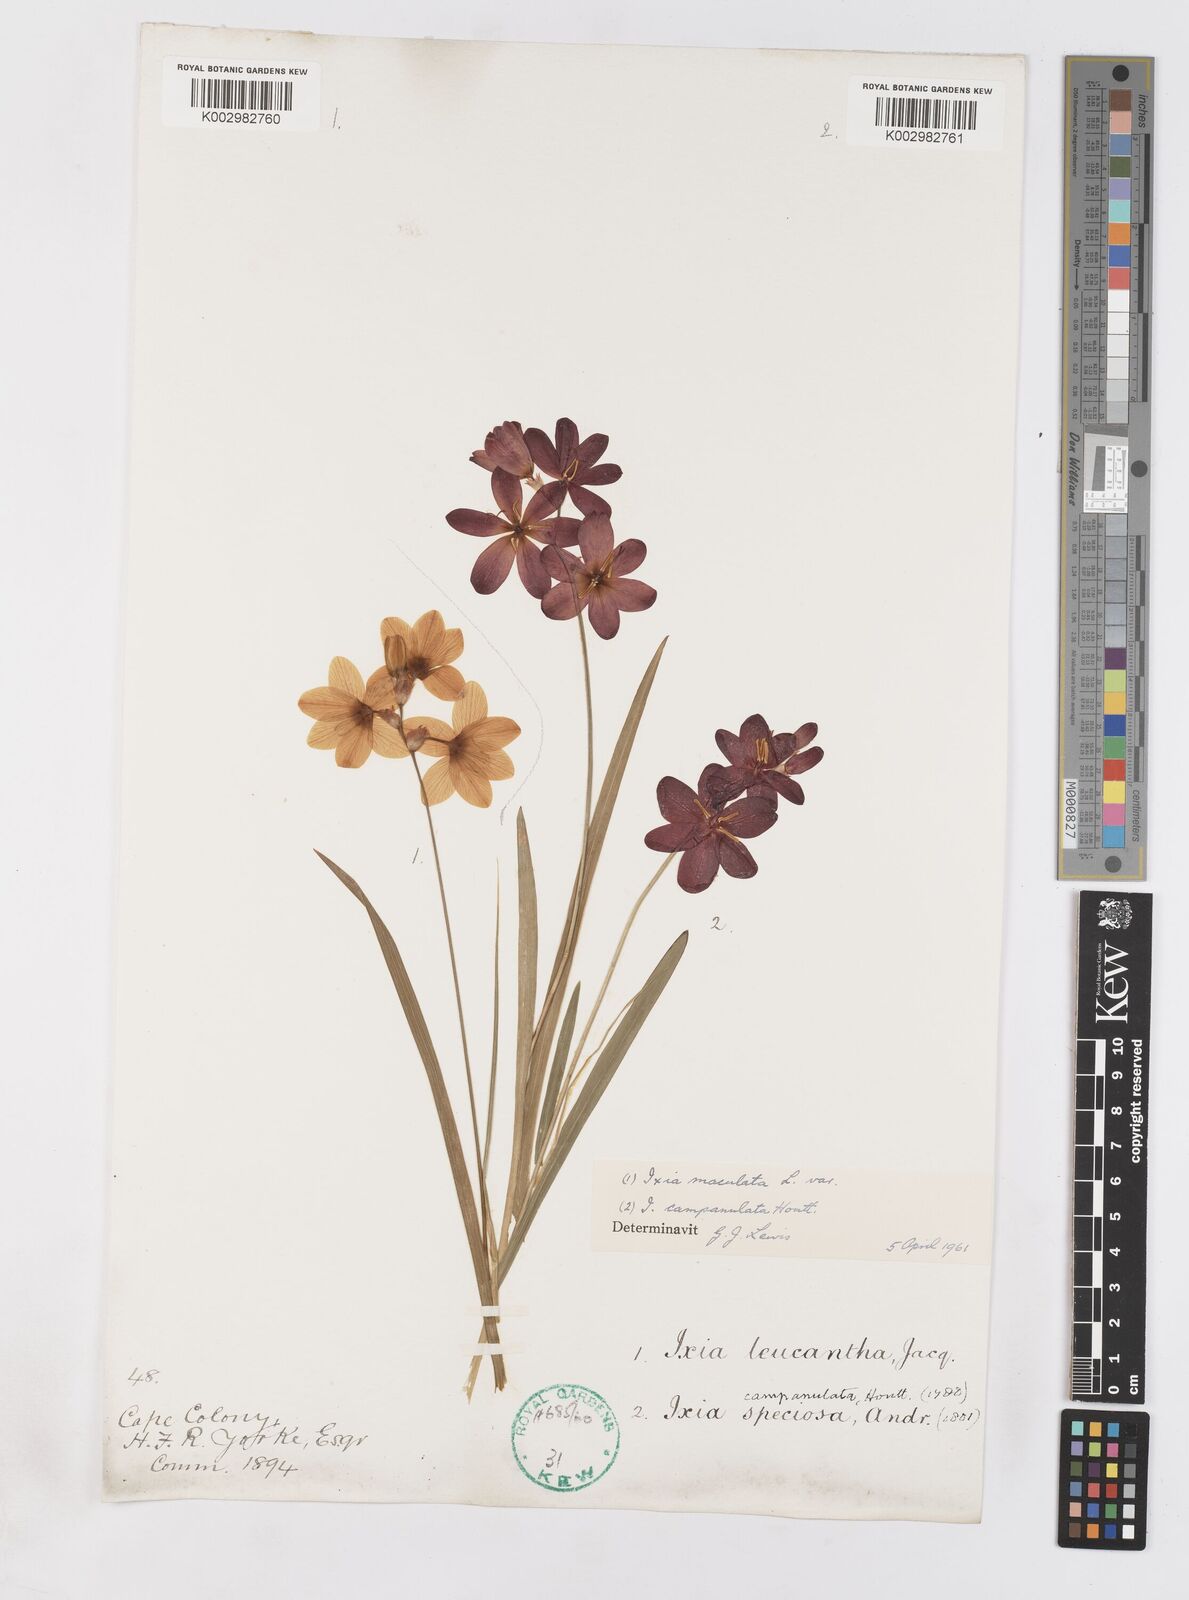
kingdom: Plantae
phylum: Tracheophyta
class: Liliopsida
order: Asparagales
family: Iridaceae
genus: Ixia
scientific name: Ixia campanulata
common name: Red corn-lily
